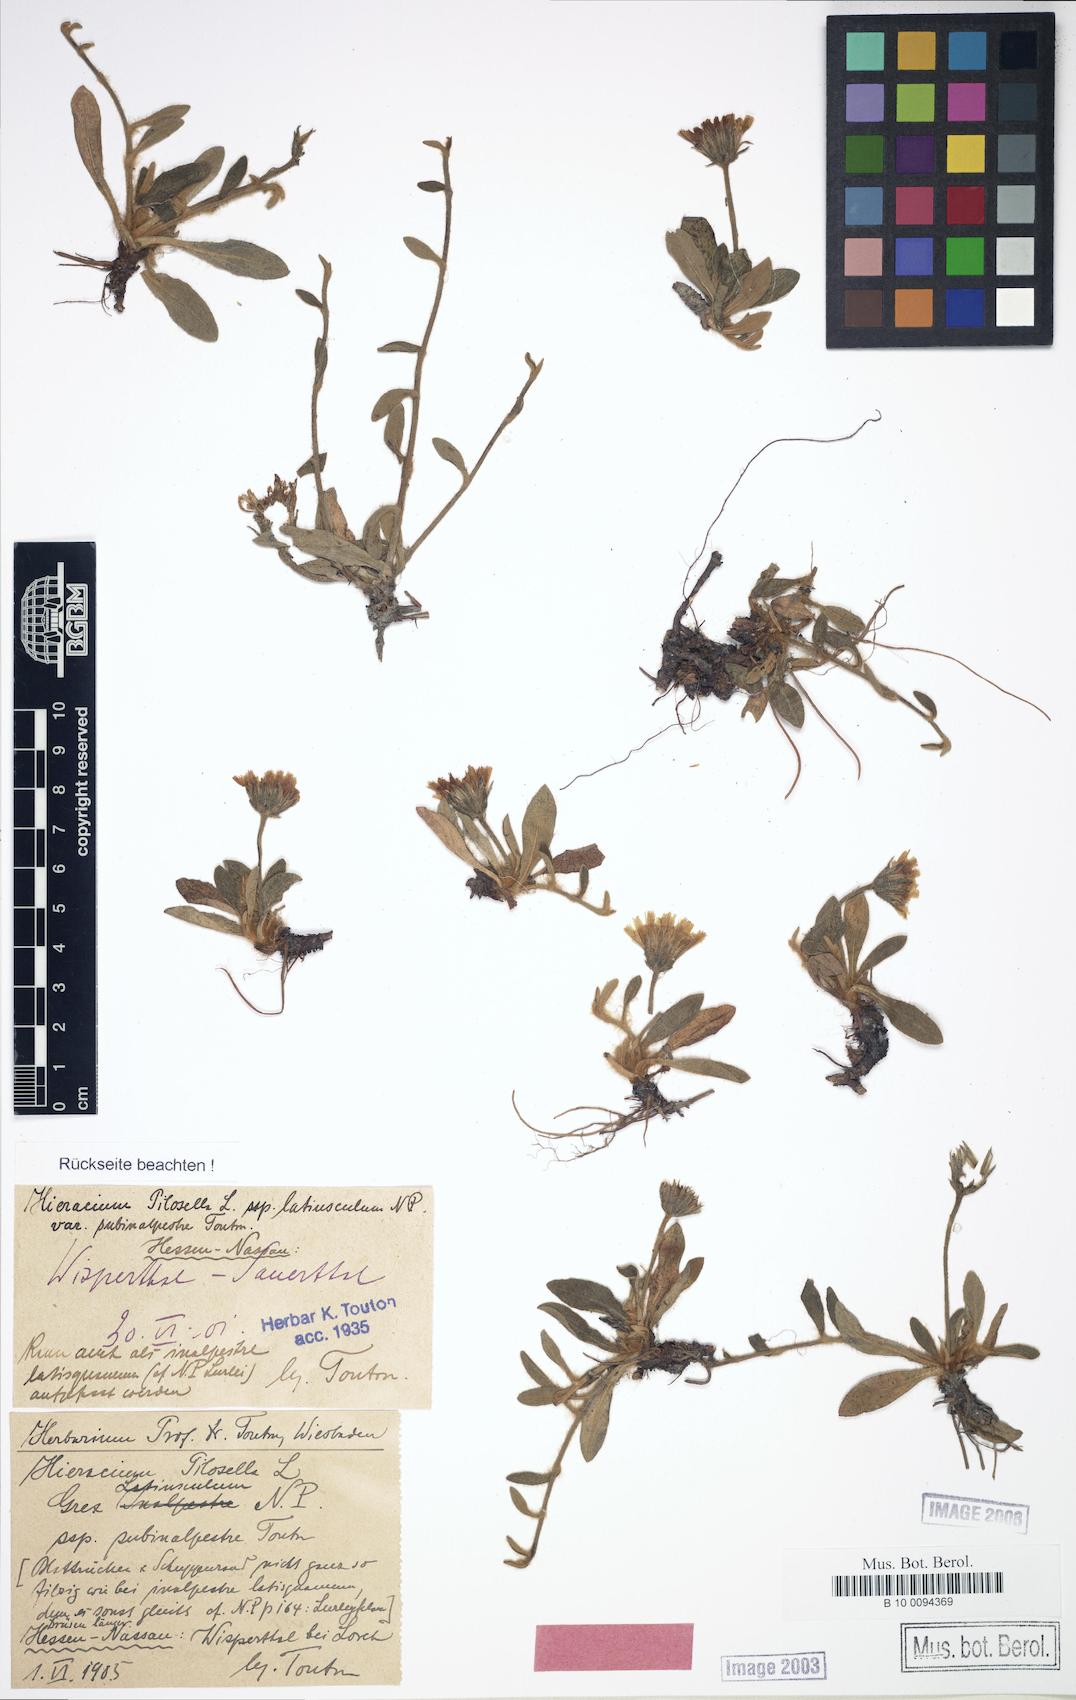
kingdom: Plantae
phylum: Tracheophyta
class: Magnoliopsida
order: Asterales
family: Asteraceae
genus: Pilosella
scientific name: Pilosella officinarum
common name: Mouse-ear hawkweed
